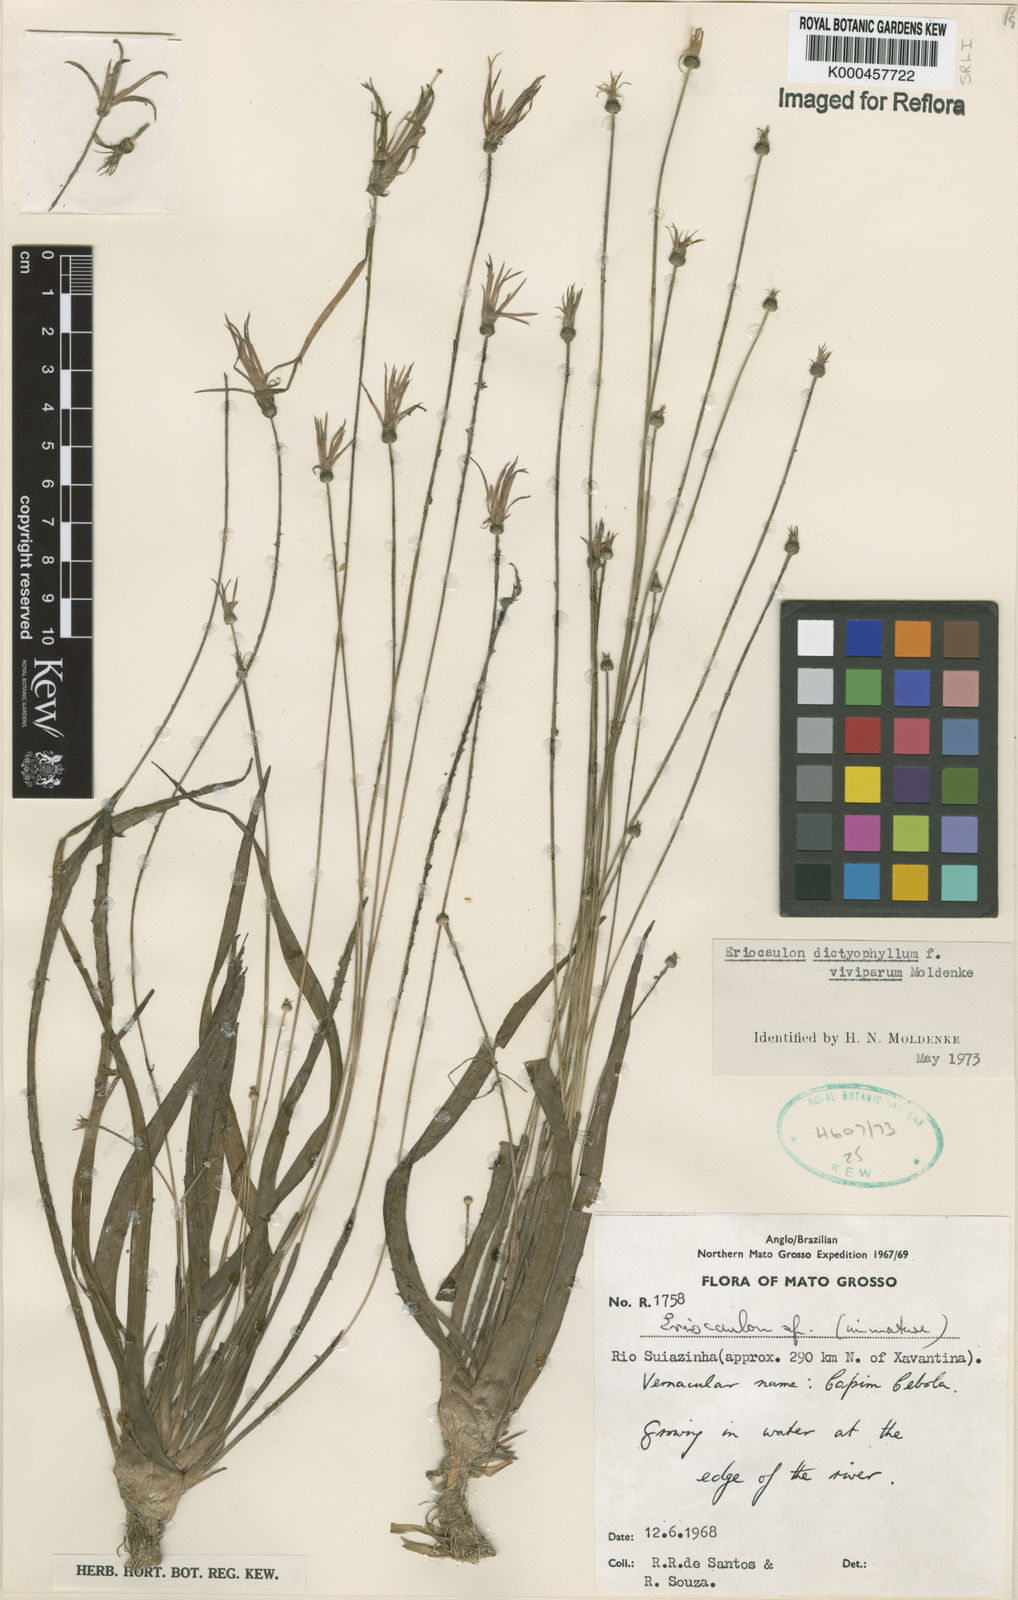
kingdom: Plantae
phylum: Tracheophyta
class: Liliopsida
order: Poales
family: Eriocaulaceae
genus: Eriocaulon
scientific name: Eriocaulon dictyophyllum
